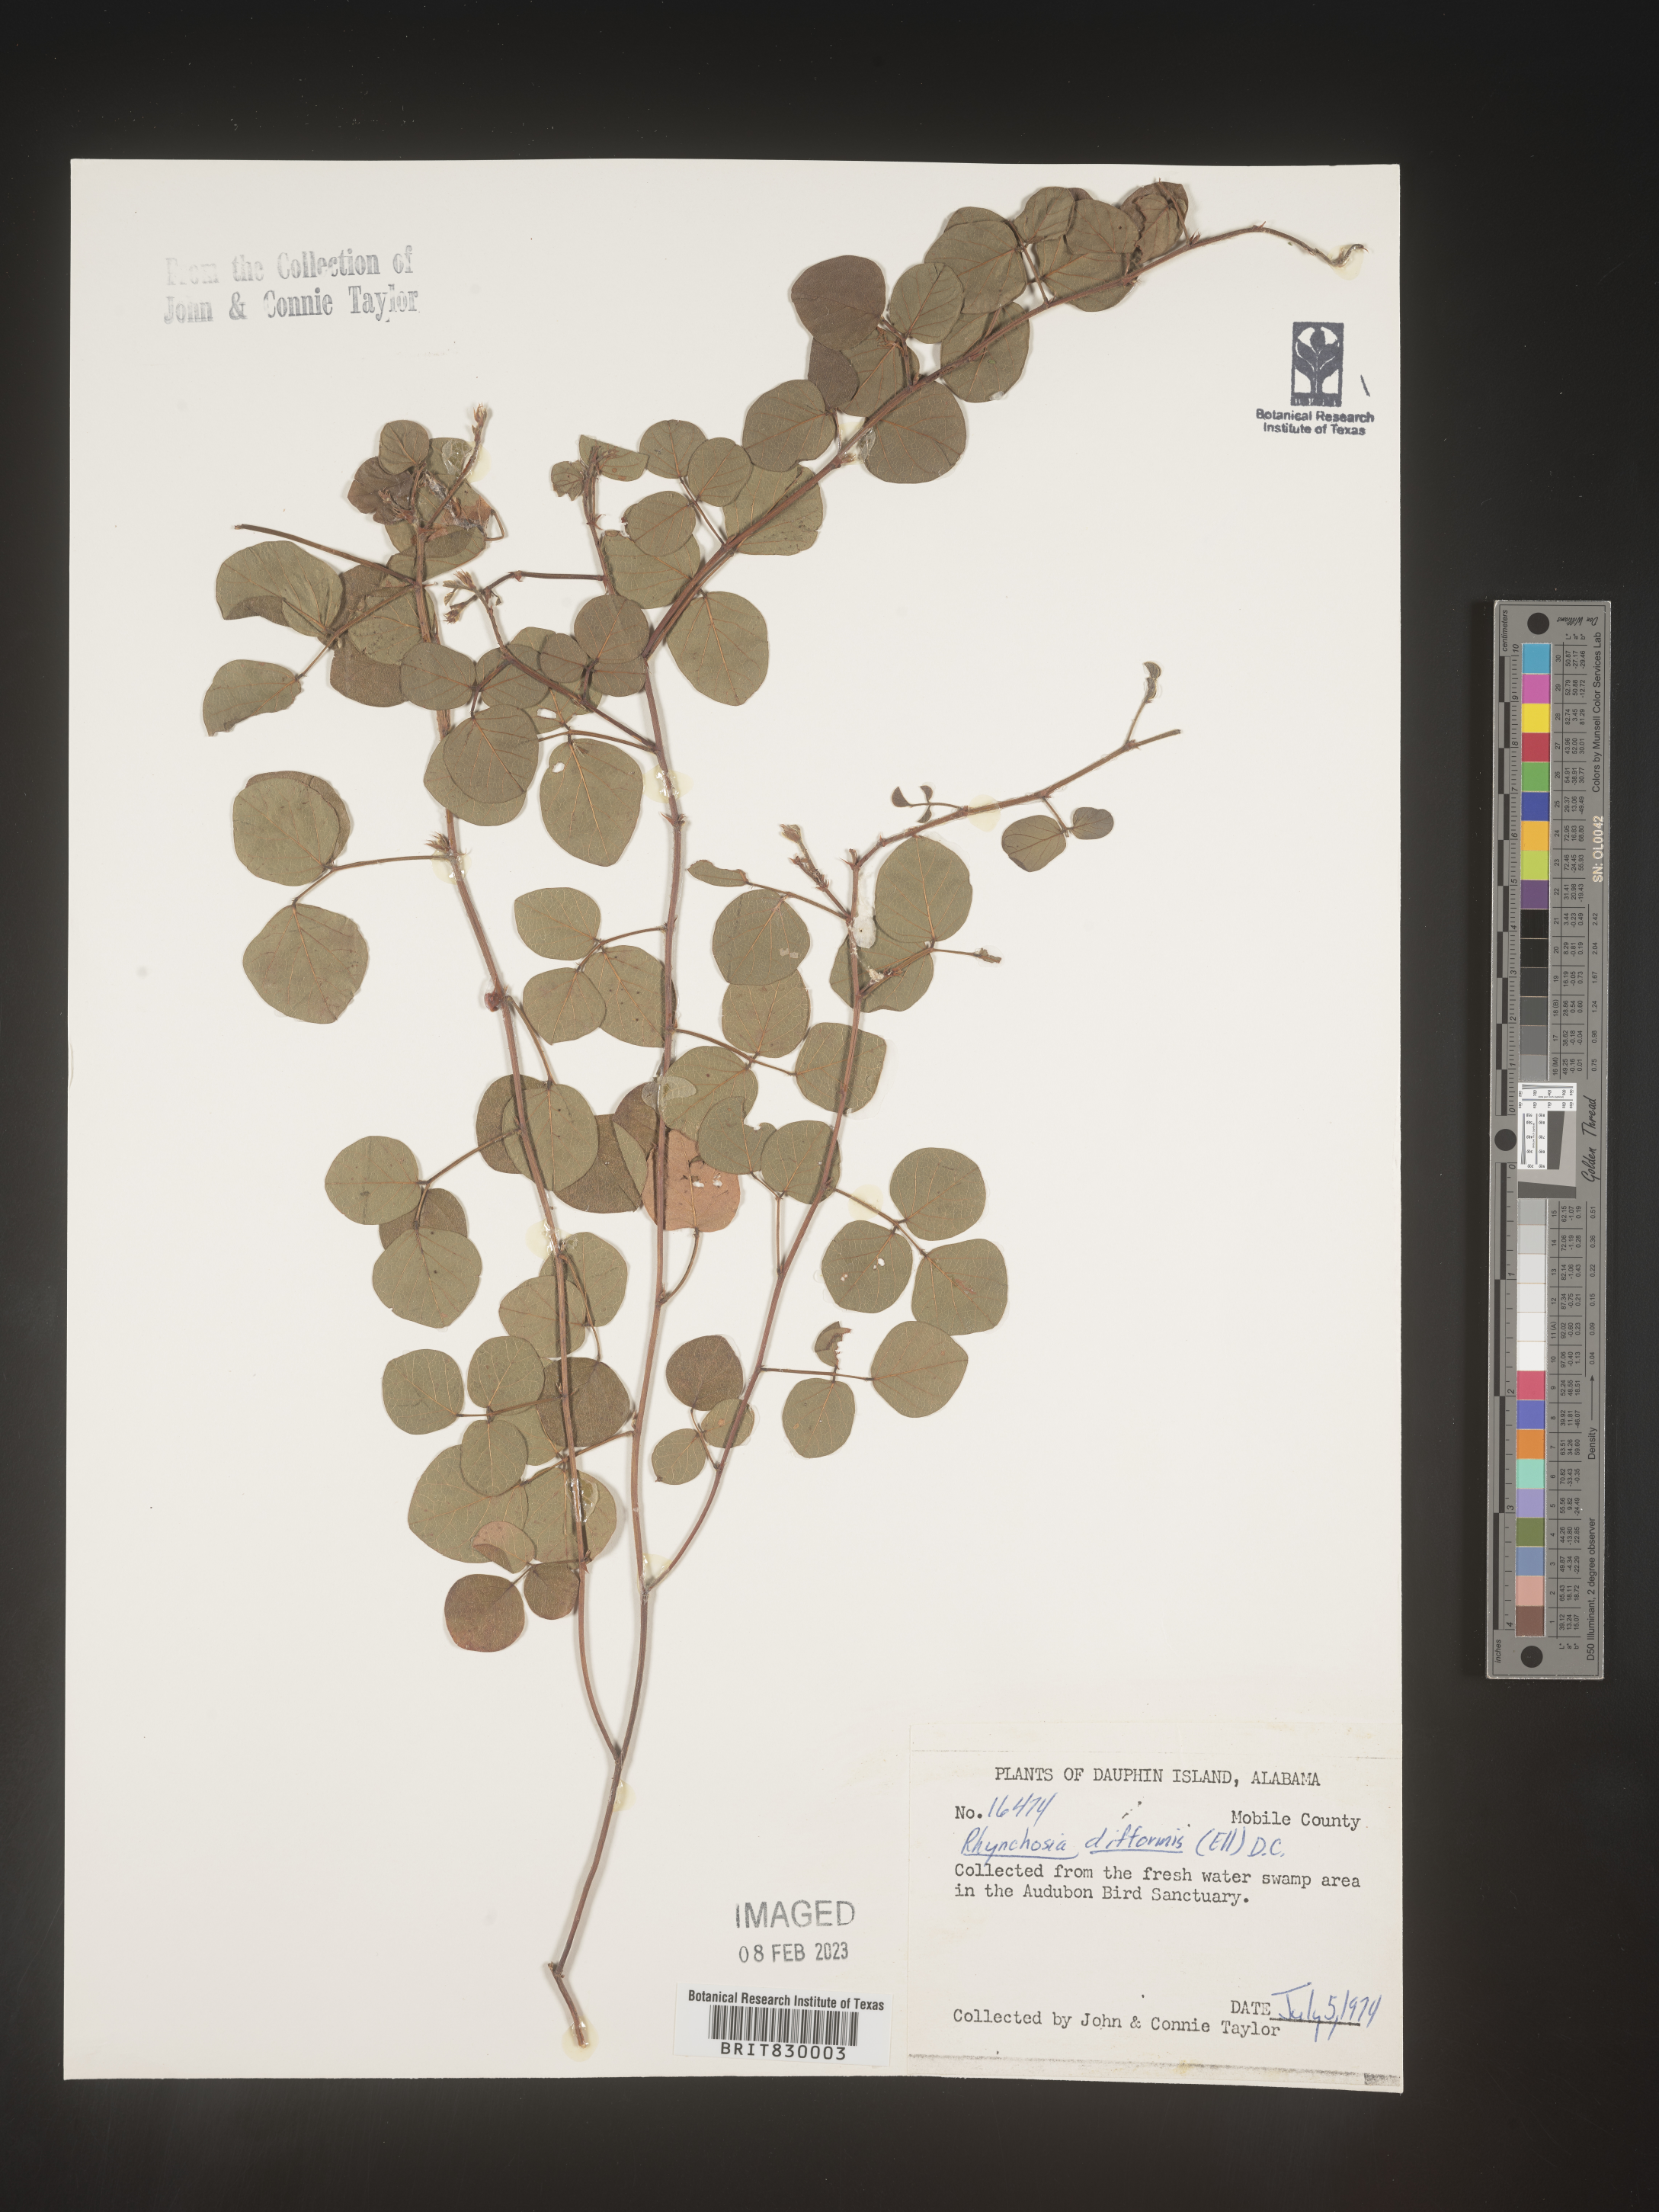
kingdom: Plantae
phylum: Tracheophyta
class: Magnoliopsida
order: Fabales
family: Fabaceae
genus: Rhynchosia
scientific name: Rhynchosia difformis
